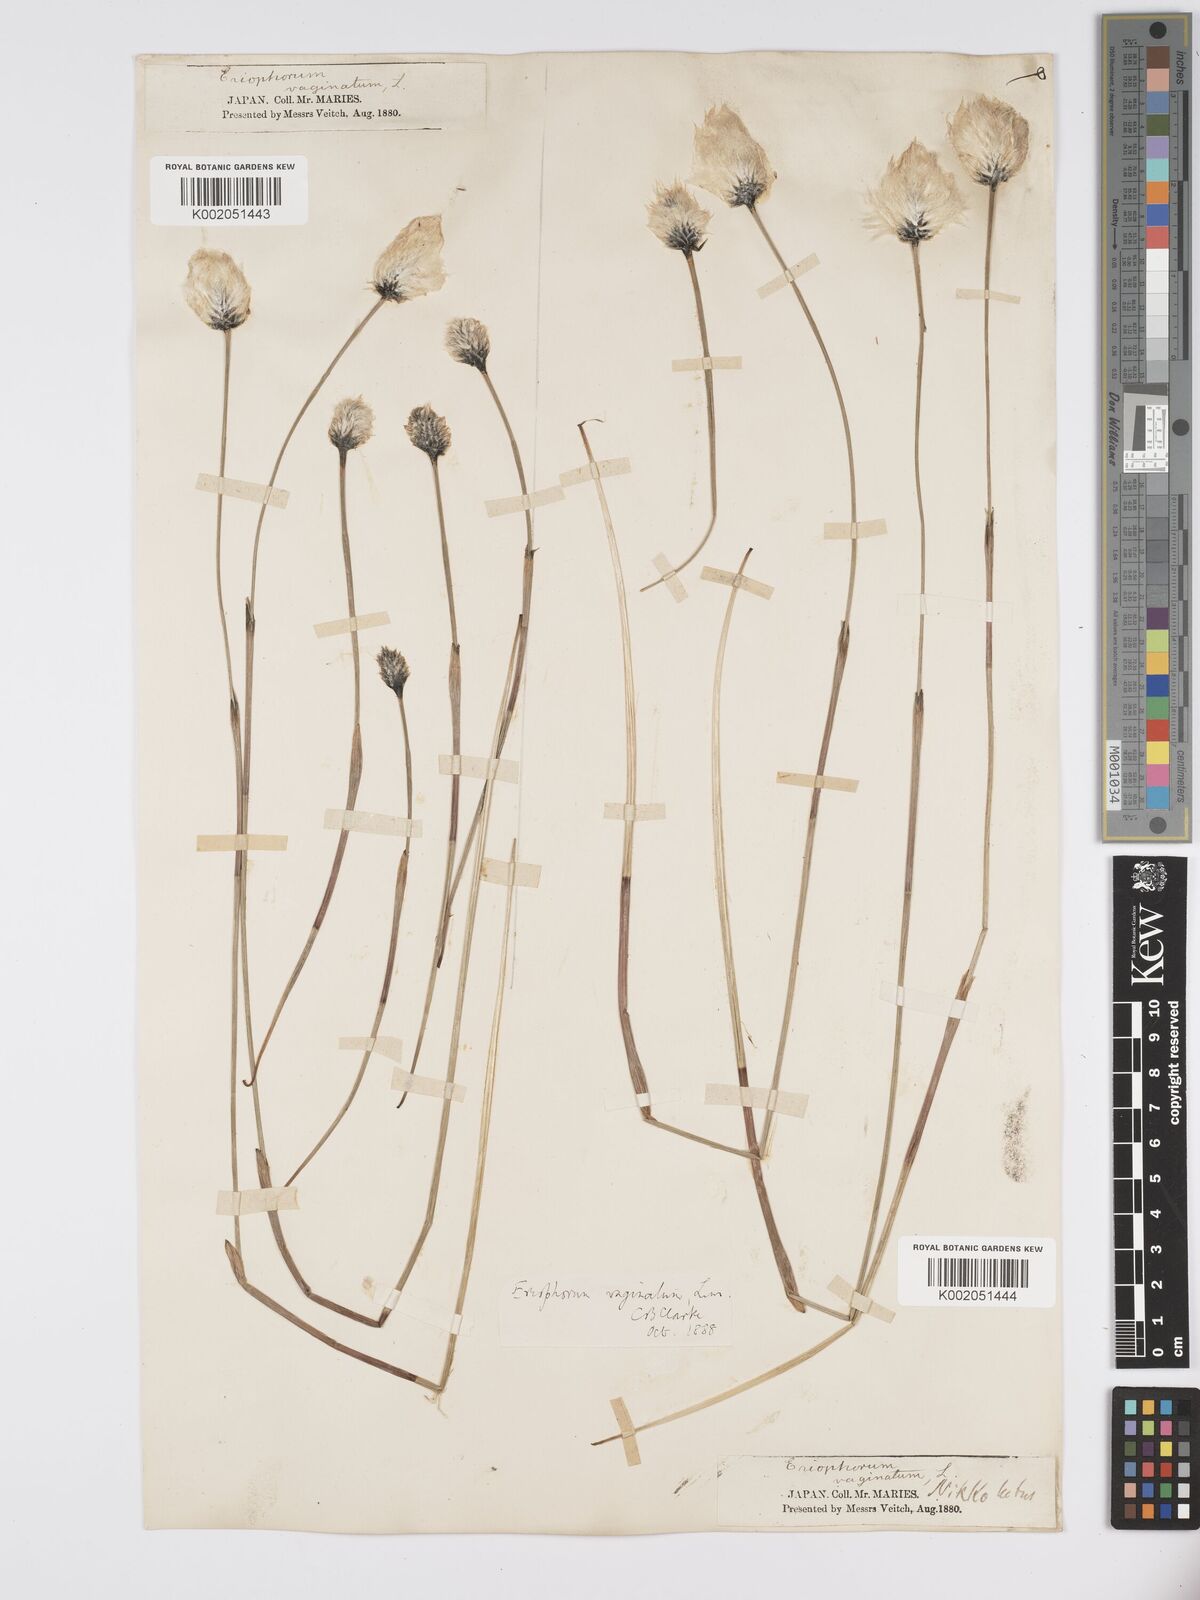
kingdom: Plantae
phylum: Tracheophyta
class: Liliopsida
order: Poales
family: Cyperaceae
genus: Eriophorum
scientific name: Eriophorum vaginatum
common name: Hare's-tail cottongrass
